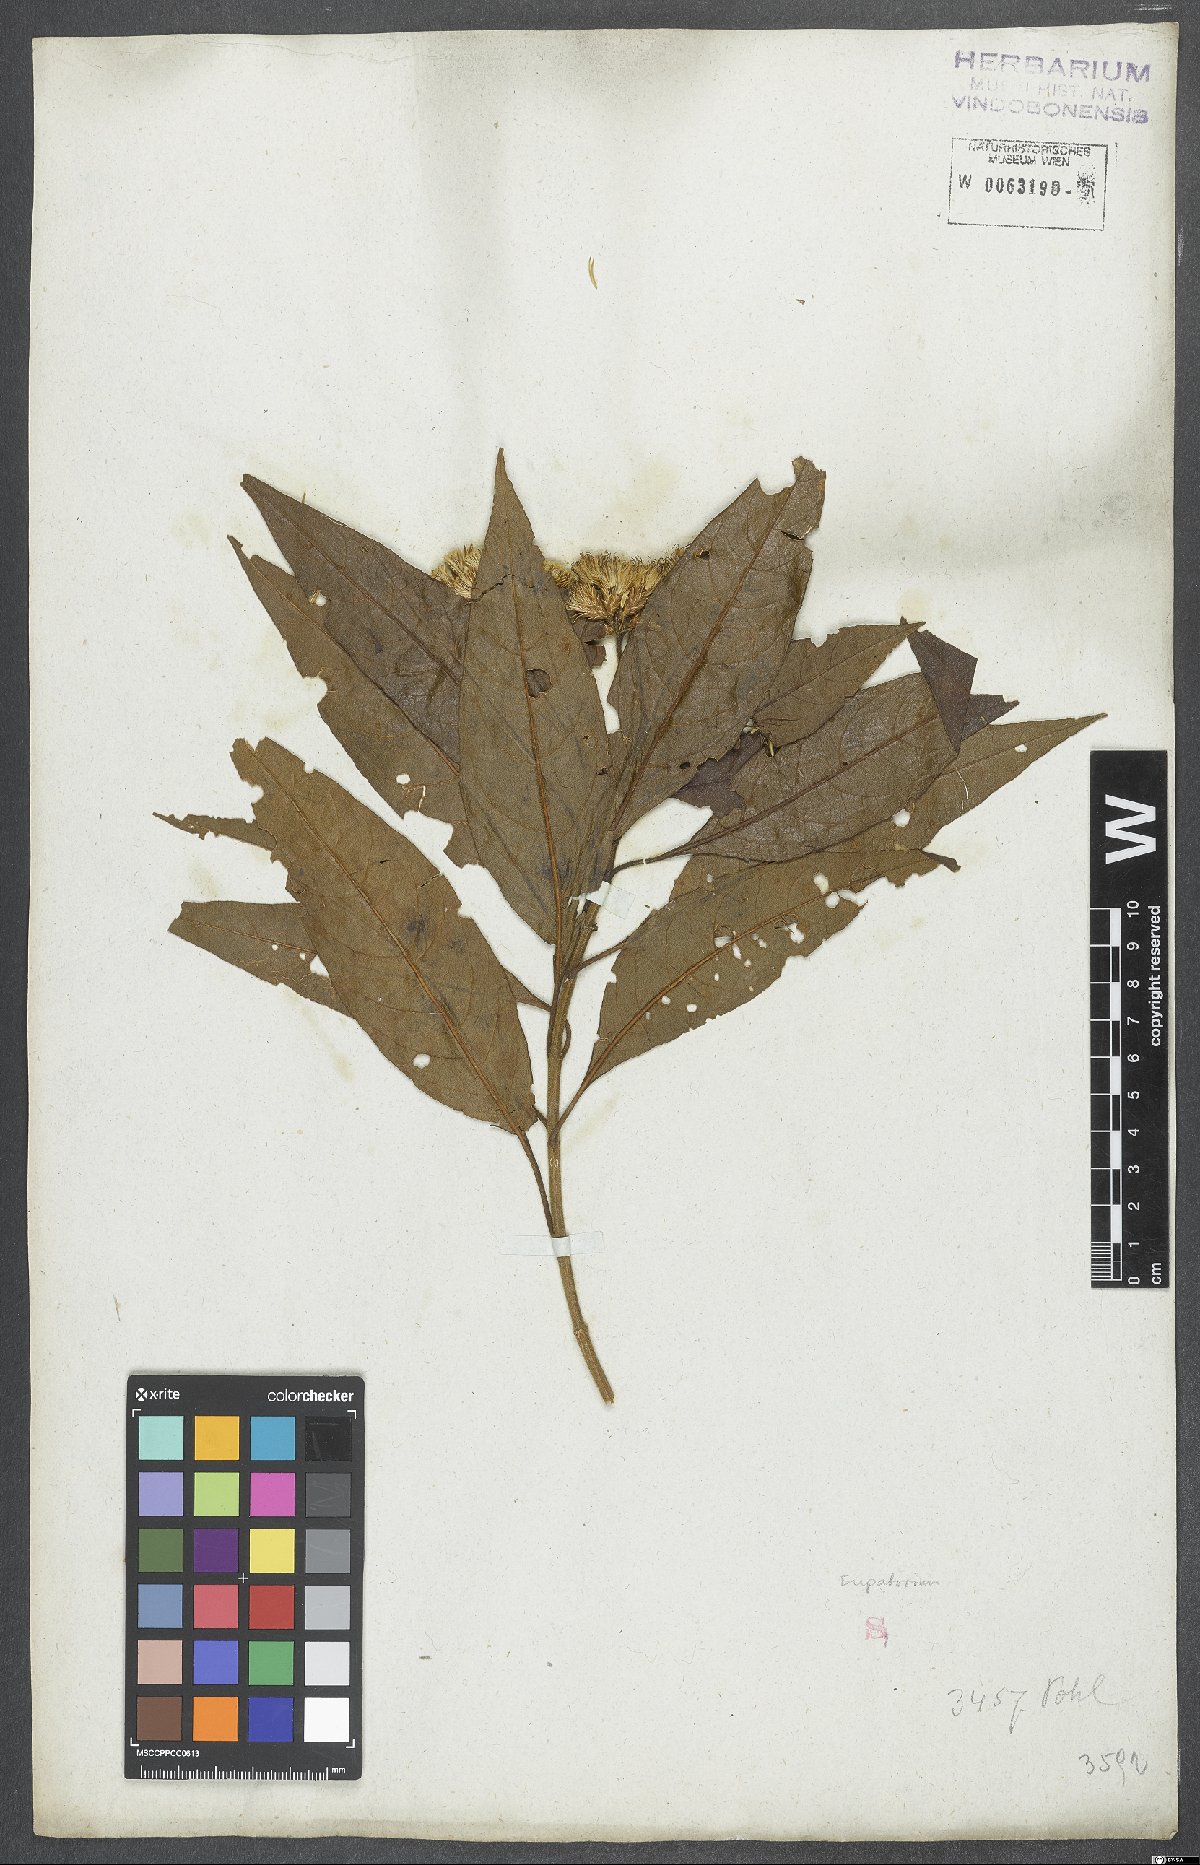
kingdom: Plantae
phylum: Tracheophyta
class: Magnoliopsida
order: Asterales
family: Asteraceae
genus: Eupatorium
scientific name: Eupatorium
